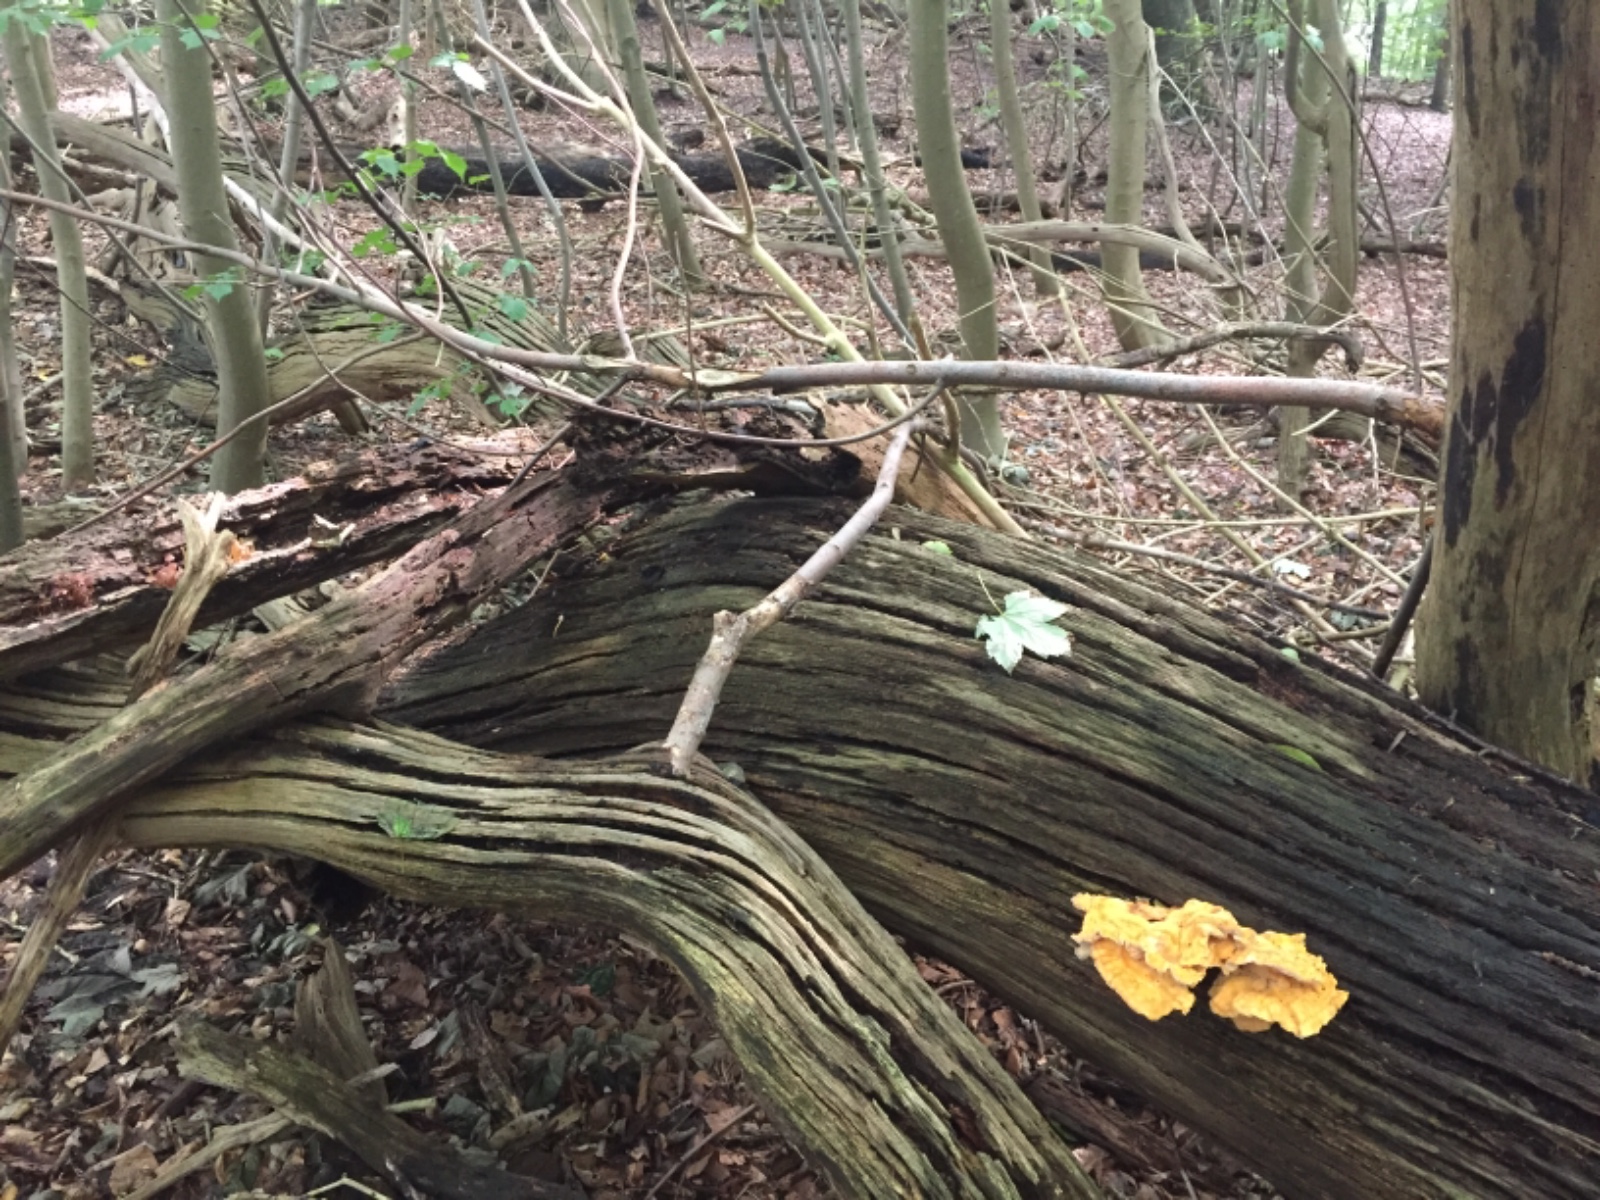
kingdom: Fungi
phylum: Basidiomycota
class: Agaricomycetes
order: Polyporales
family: Laetiporaceae
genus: Laetiporus
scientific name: Laetiporus sulphureus
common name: svovlporesvamp
